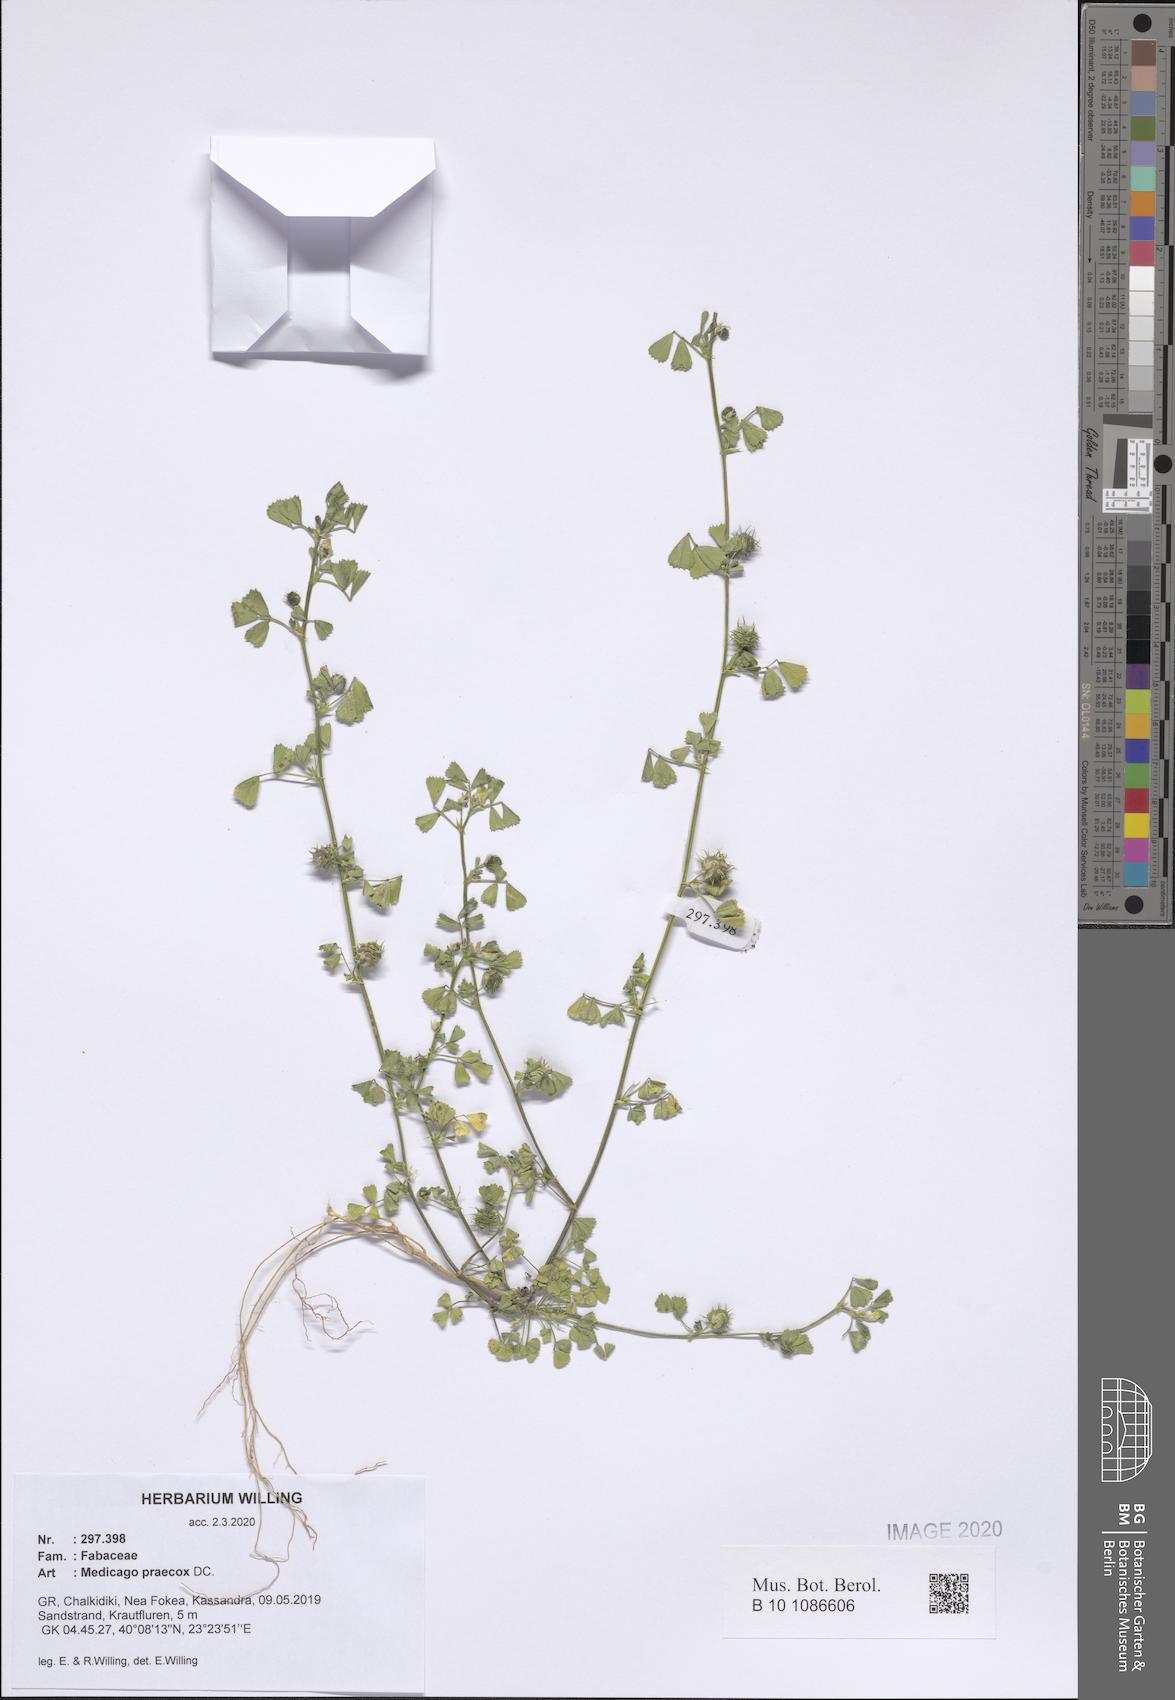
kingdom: Plantae
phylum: Tracheophyta
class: Magnoliopsida
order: Fabales
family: Fabaceae
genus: Medicago
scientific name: Medicago praecox
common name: Early medick
